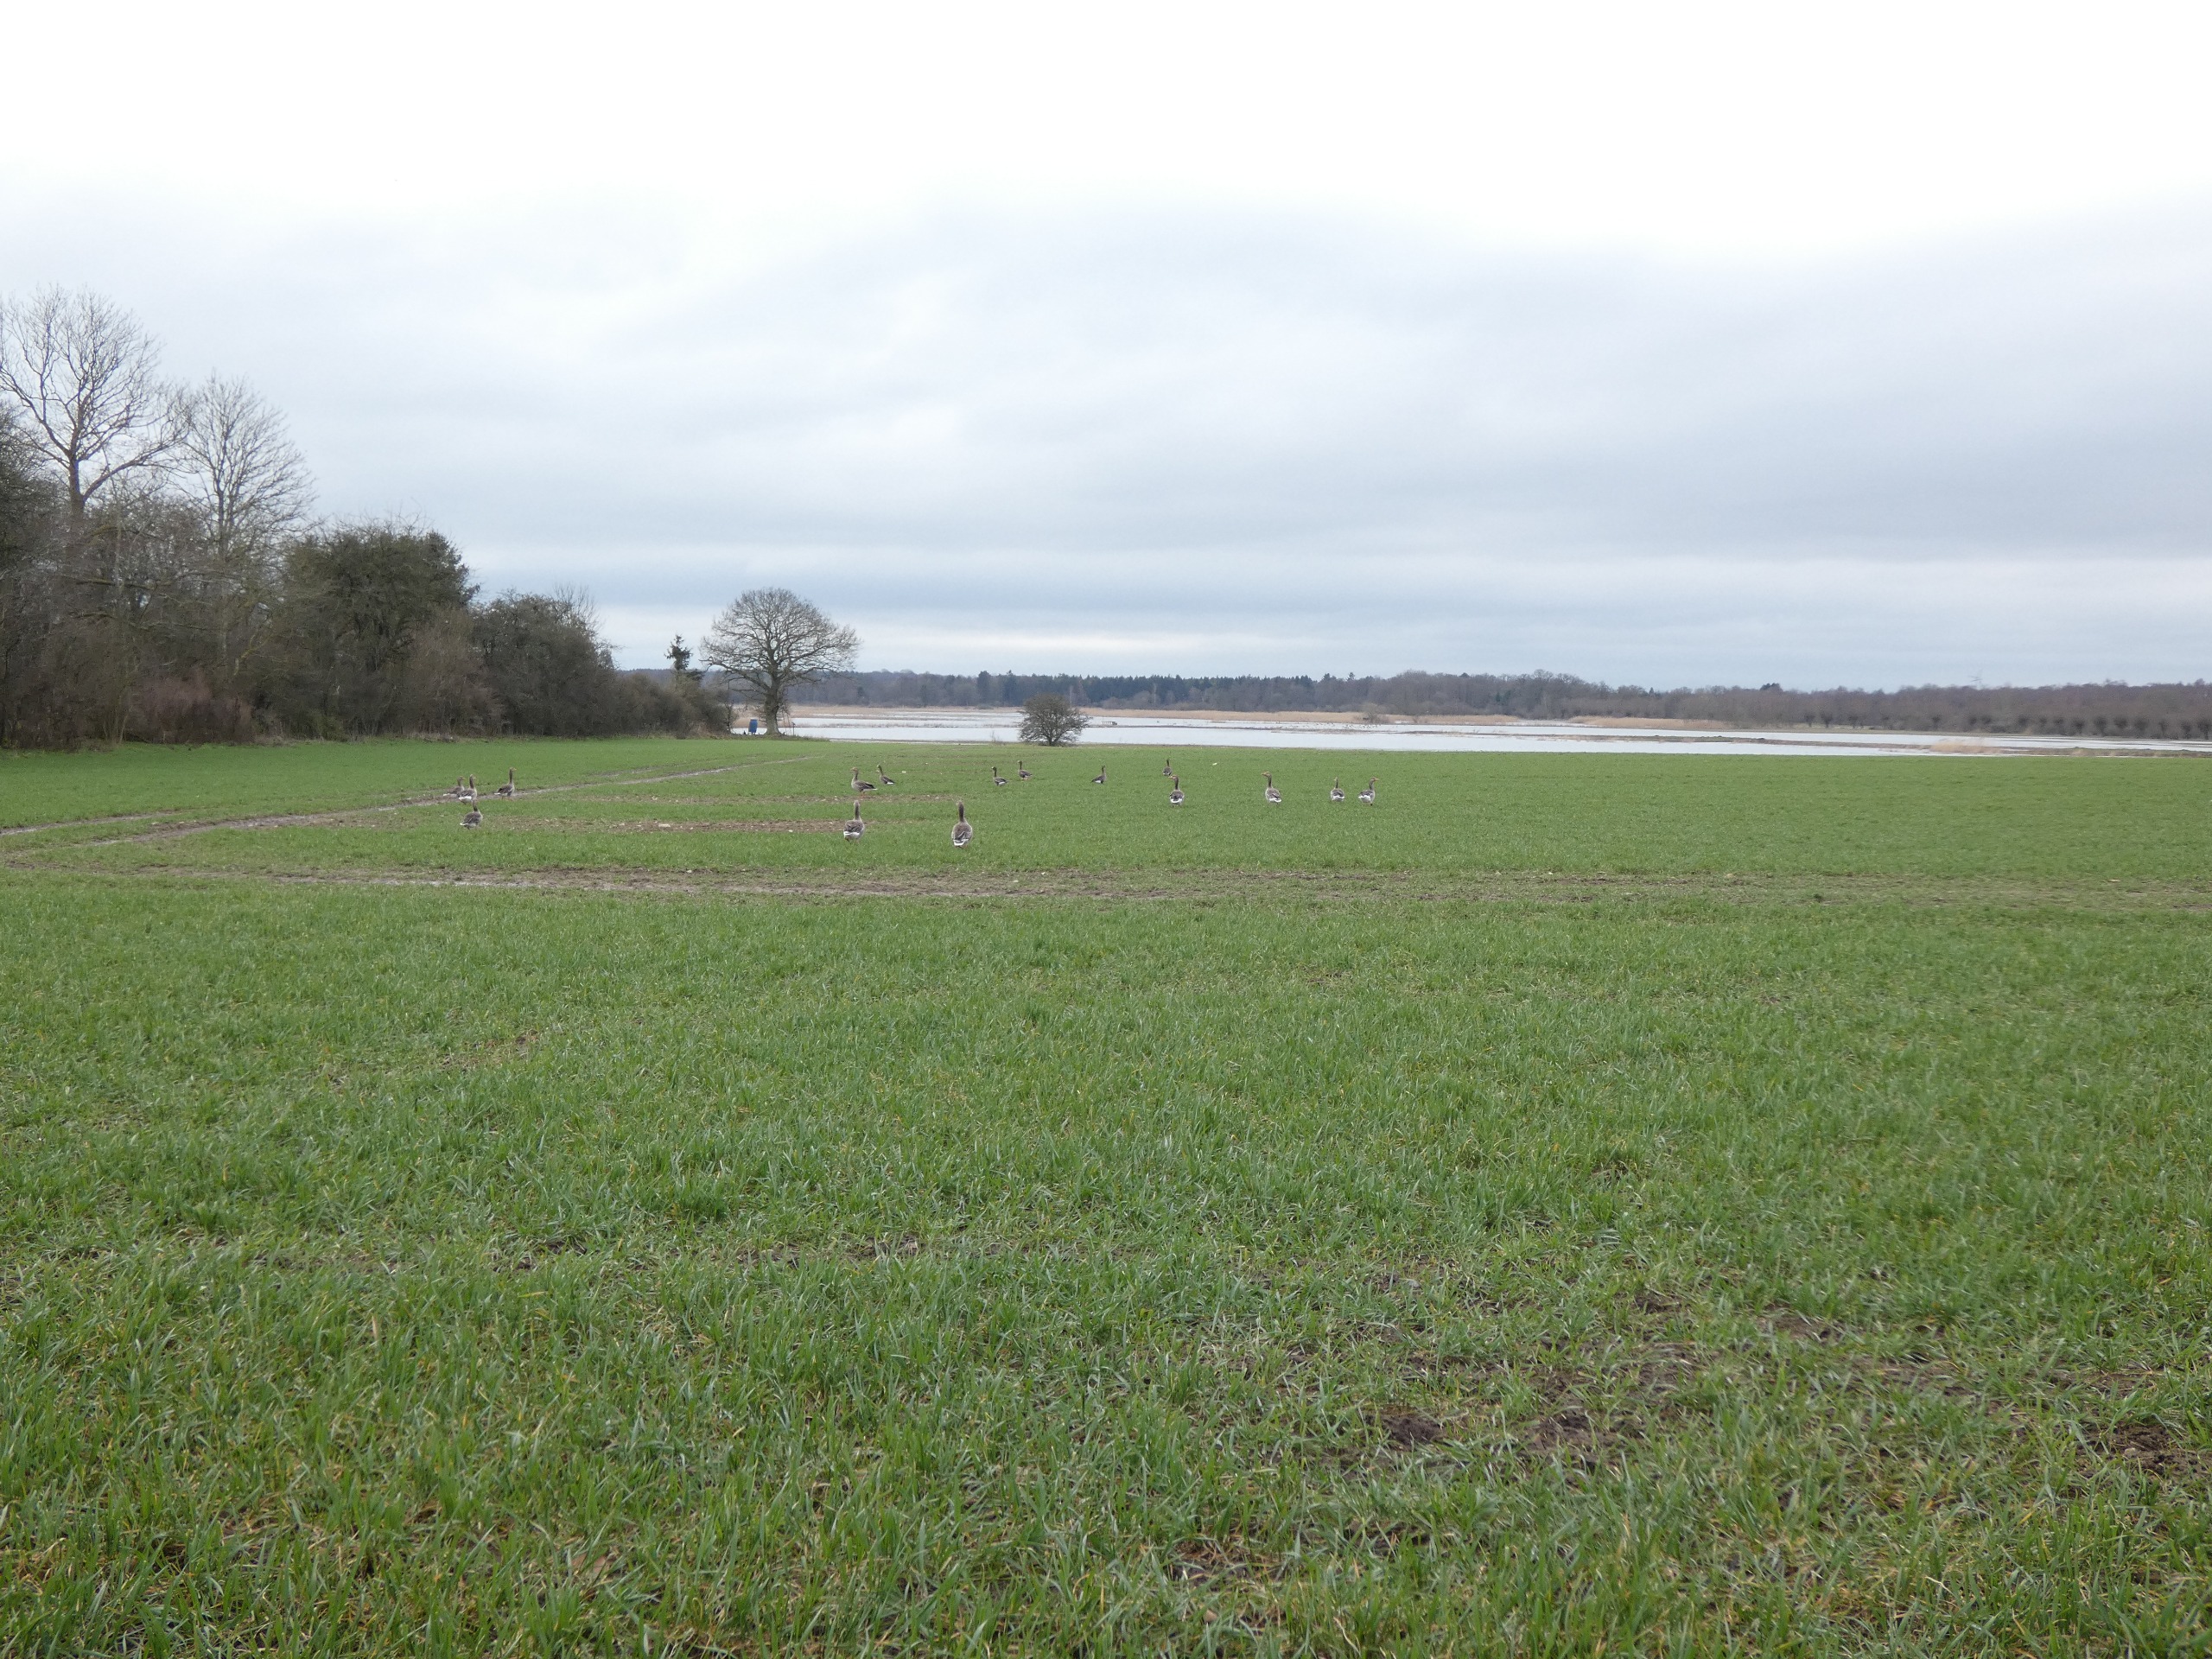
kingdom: Animalia
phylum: Chordata
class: Aves
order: Anseriformes
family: Anatidae
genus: Anser
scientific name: Anser anser
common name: Grågås
